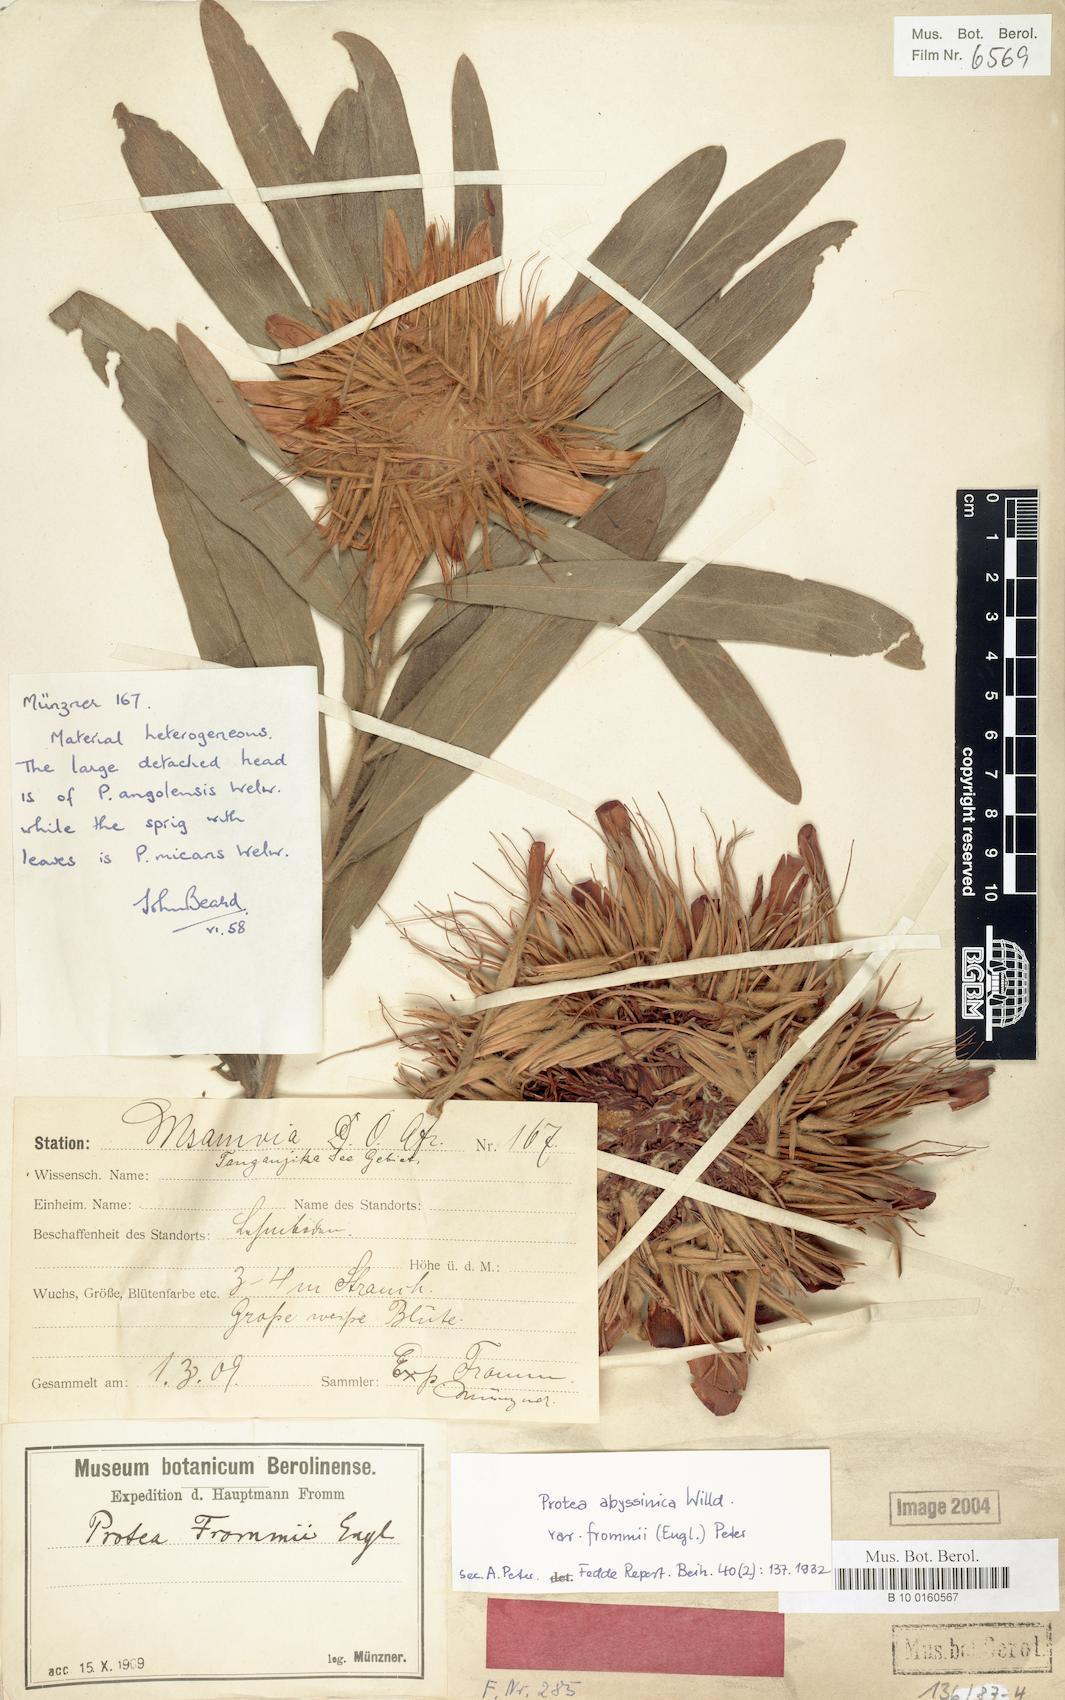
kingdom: Plantae
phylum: Tracheophyta
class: Magnoliopsida
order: Proteales
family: Proteaceae
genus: Protea
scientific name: Protea micans
